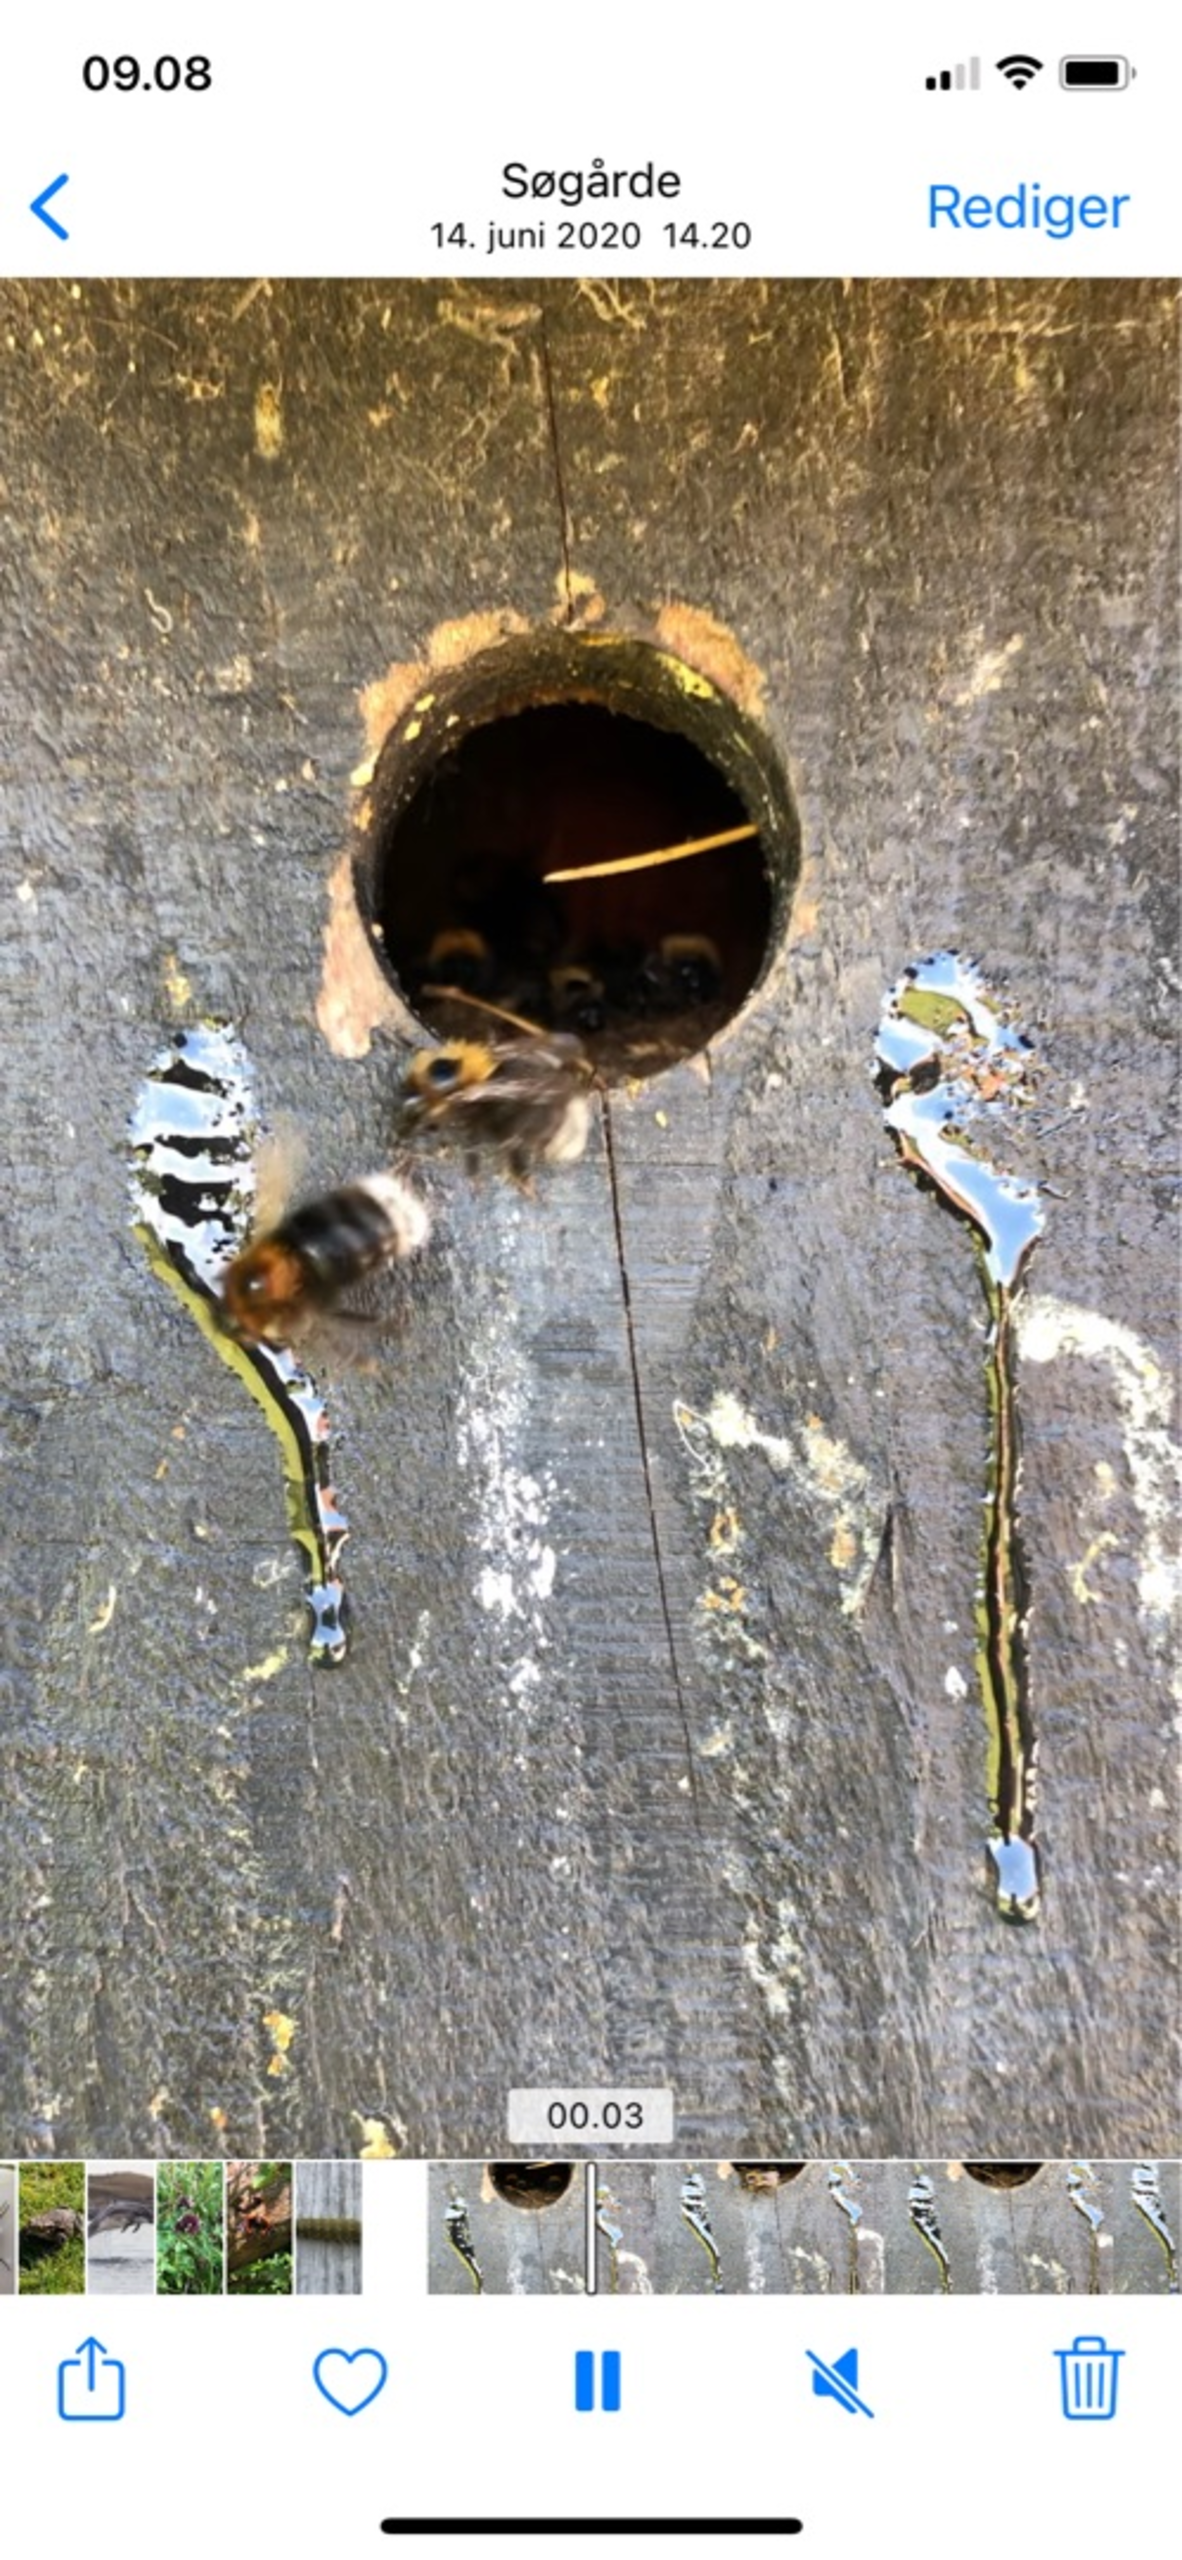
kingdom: Animalia
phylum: Arthropoda
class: Insecta
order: Hymenoptera
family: Apidae
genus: Bombus
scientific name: Bombus hypnorum
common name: Hushumle
